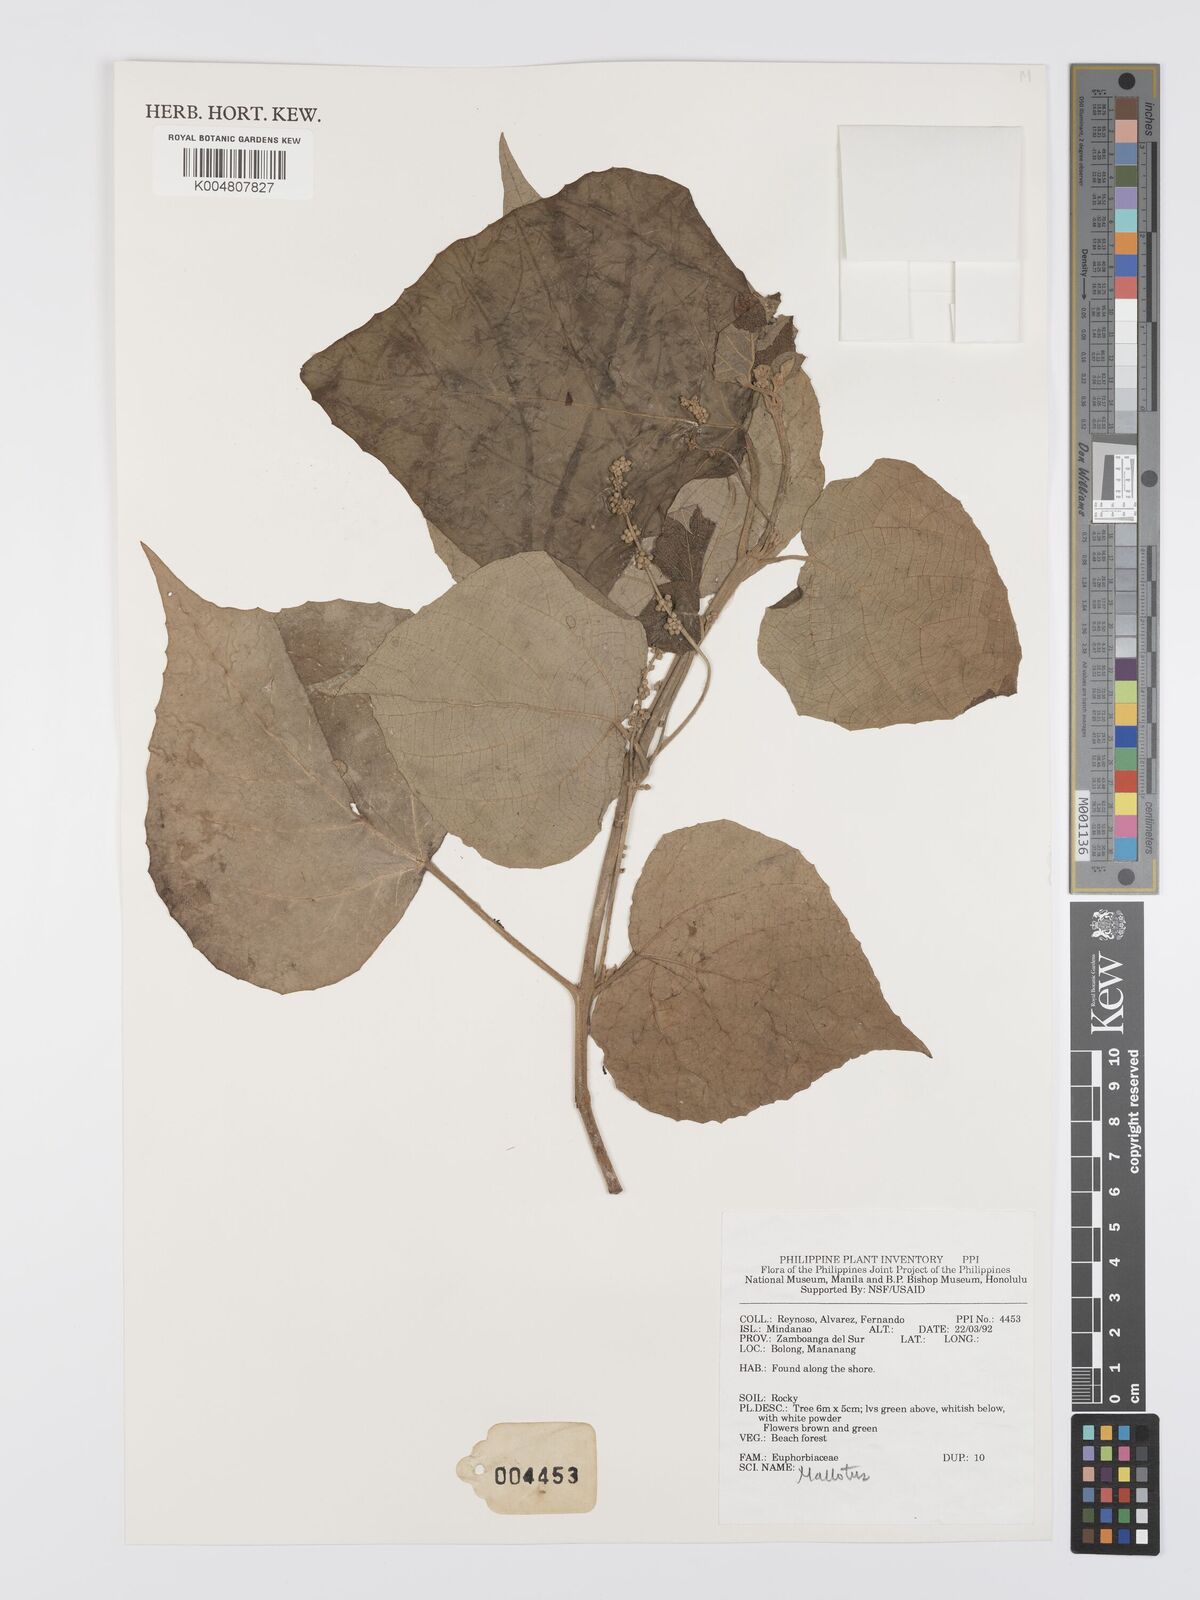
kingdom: Plantae
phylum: Tracheophyta
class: Magnoliopsida
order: Malpighiales
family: Euphorbiaceae
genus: Mallotus
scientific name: Mallotus
